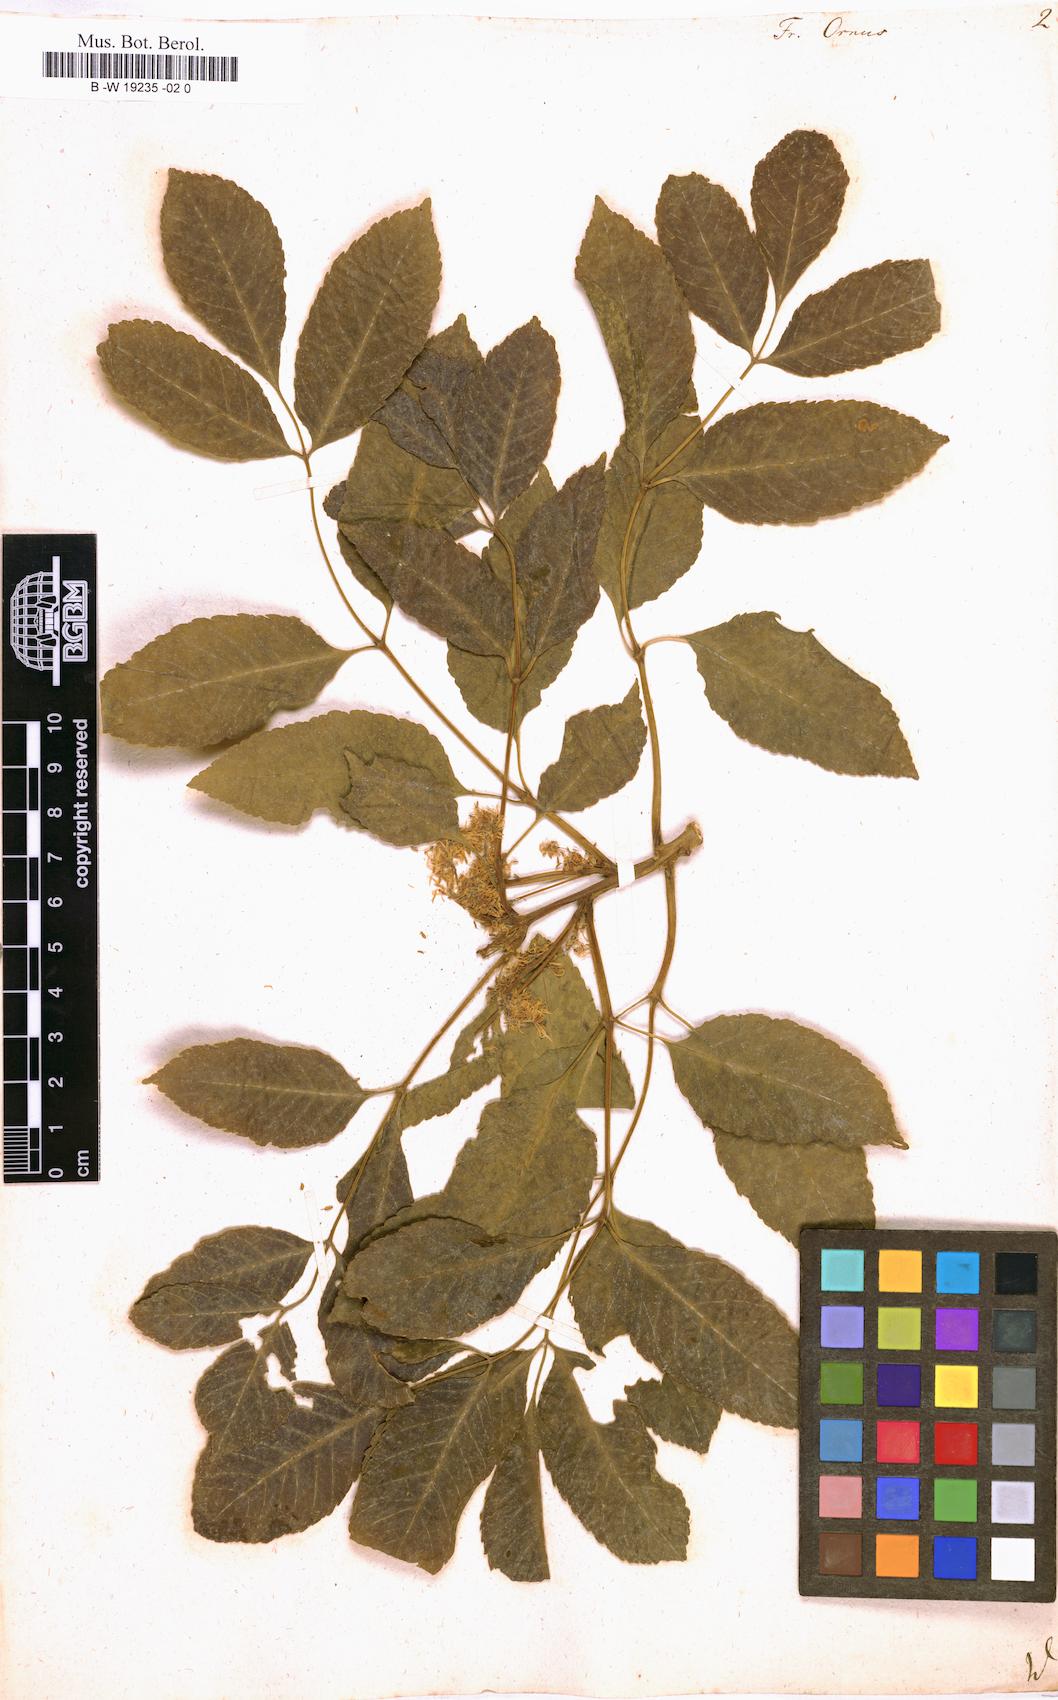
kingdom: Plantae
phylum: Tracheophyta
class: Magnoliopsida
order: Lamiales
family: Oleaceae
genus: Fraxinus
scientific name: Fraxinus ornus
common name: Manna ash
